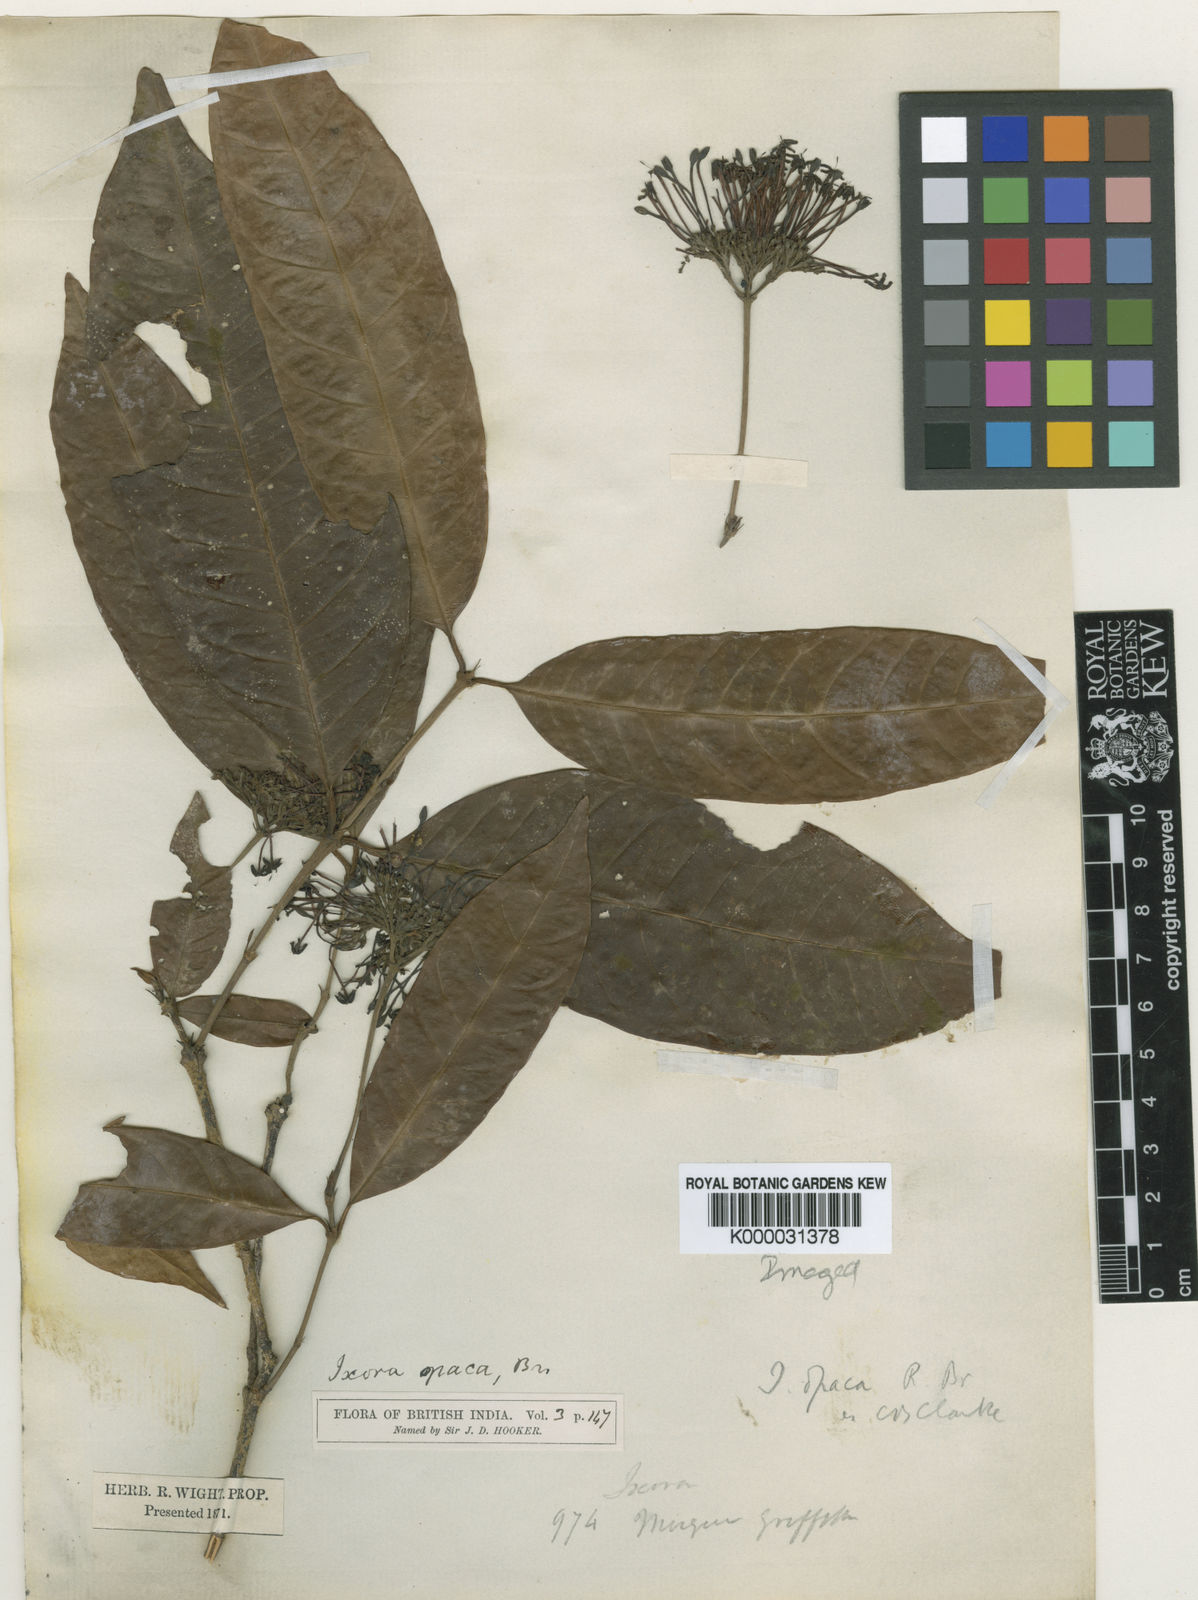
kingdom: Plantae
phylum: Tracheophyta
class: Magnoliopsida
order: Gentianales
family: Rubiaceae
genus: Ixora
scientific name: Ixora pendula
